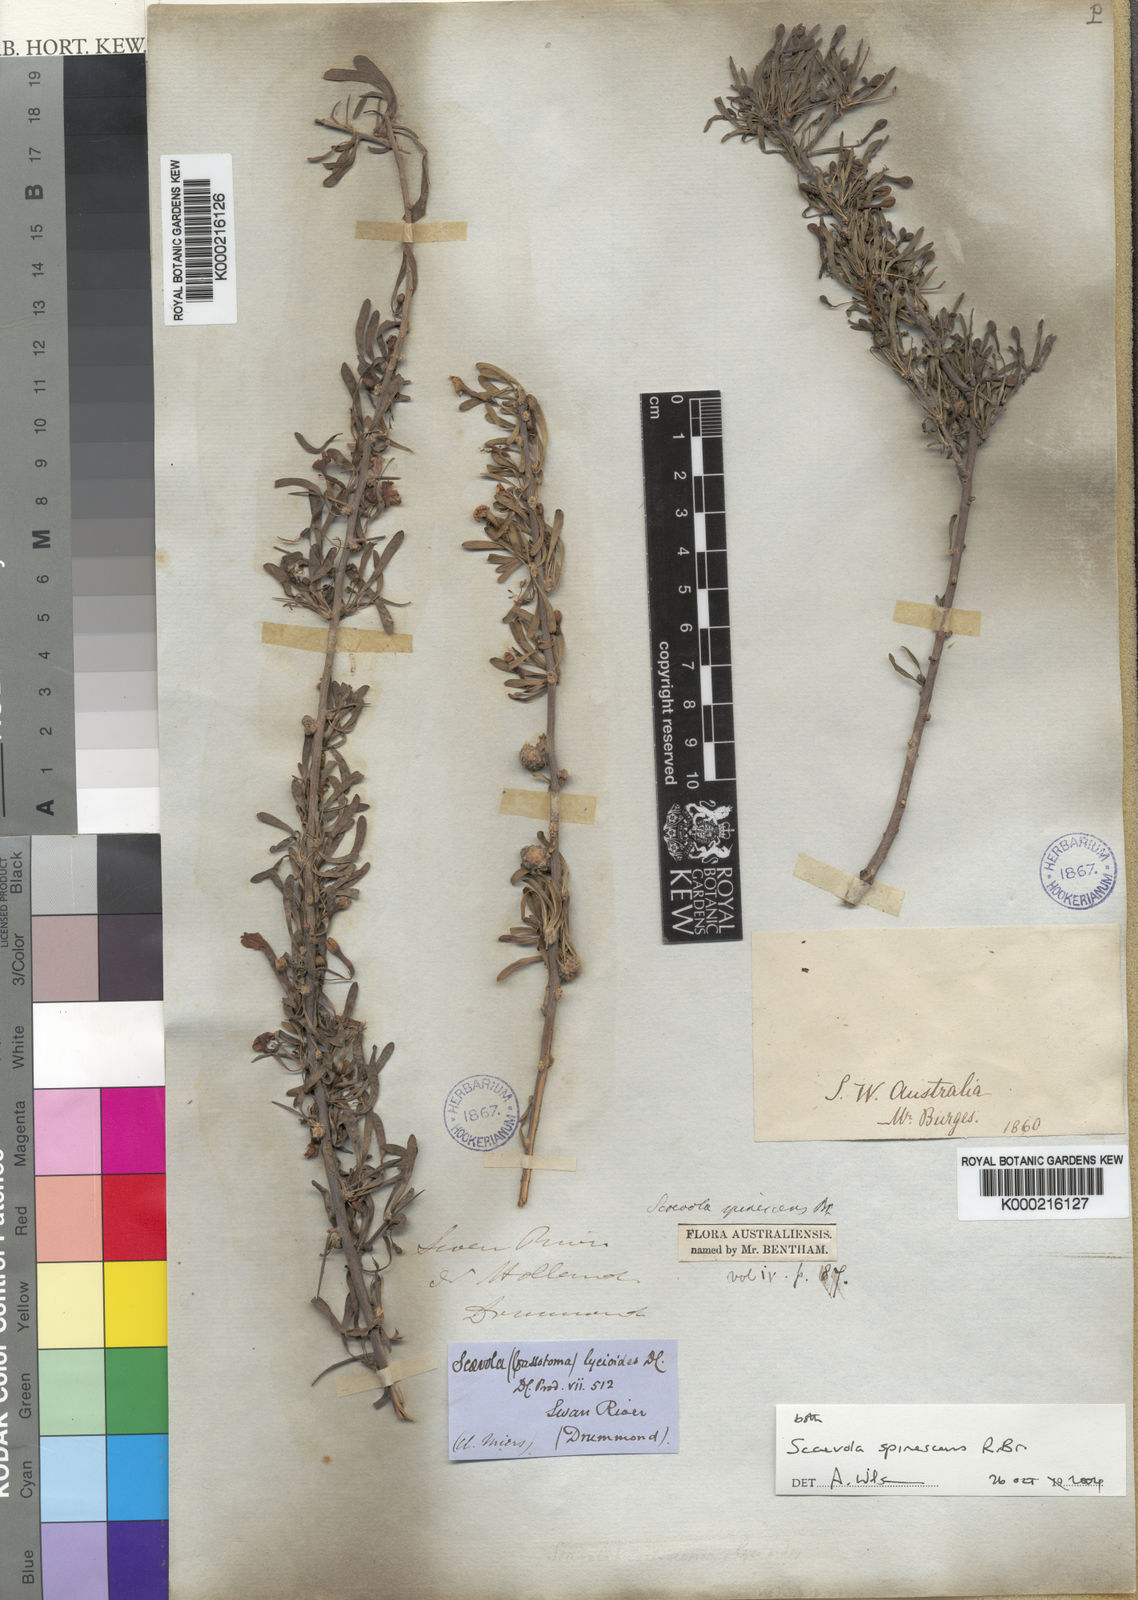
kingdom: Plantae
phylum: Tracheophyta
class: Magnoliopsida
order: Asterales
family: Goodeniaceae
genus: Scaevola
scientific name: Scaevola spinescens
